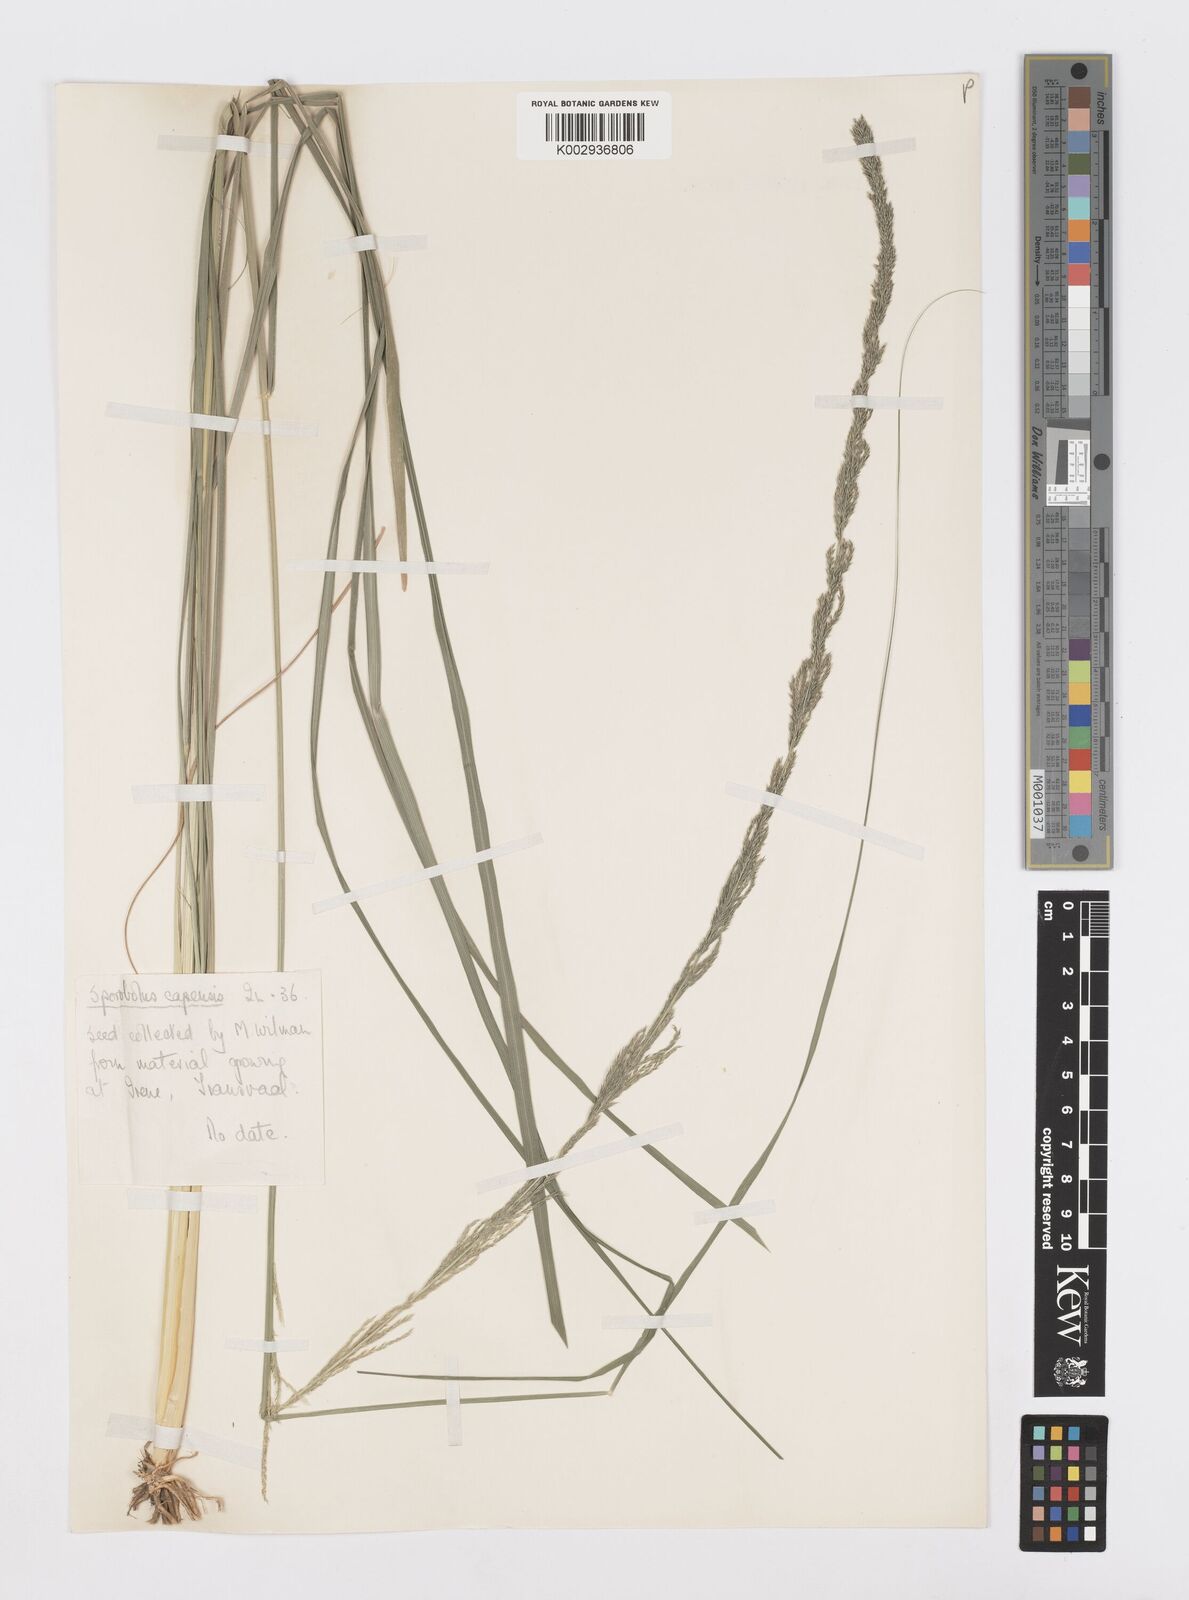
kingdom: Plantae
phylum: Tracheophyta
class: Liliopsida
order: Poales
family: Poaceae
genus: Sporobolus
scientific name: Sporobolus africanus
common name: African dropseed
